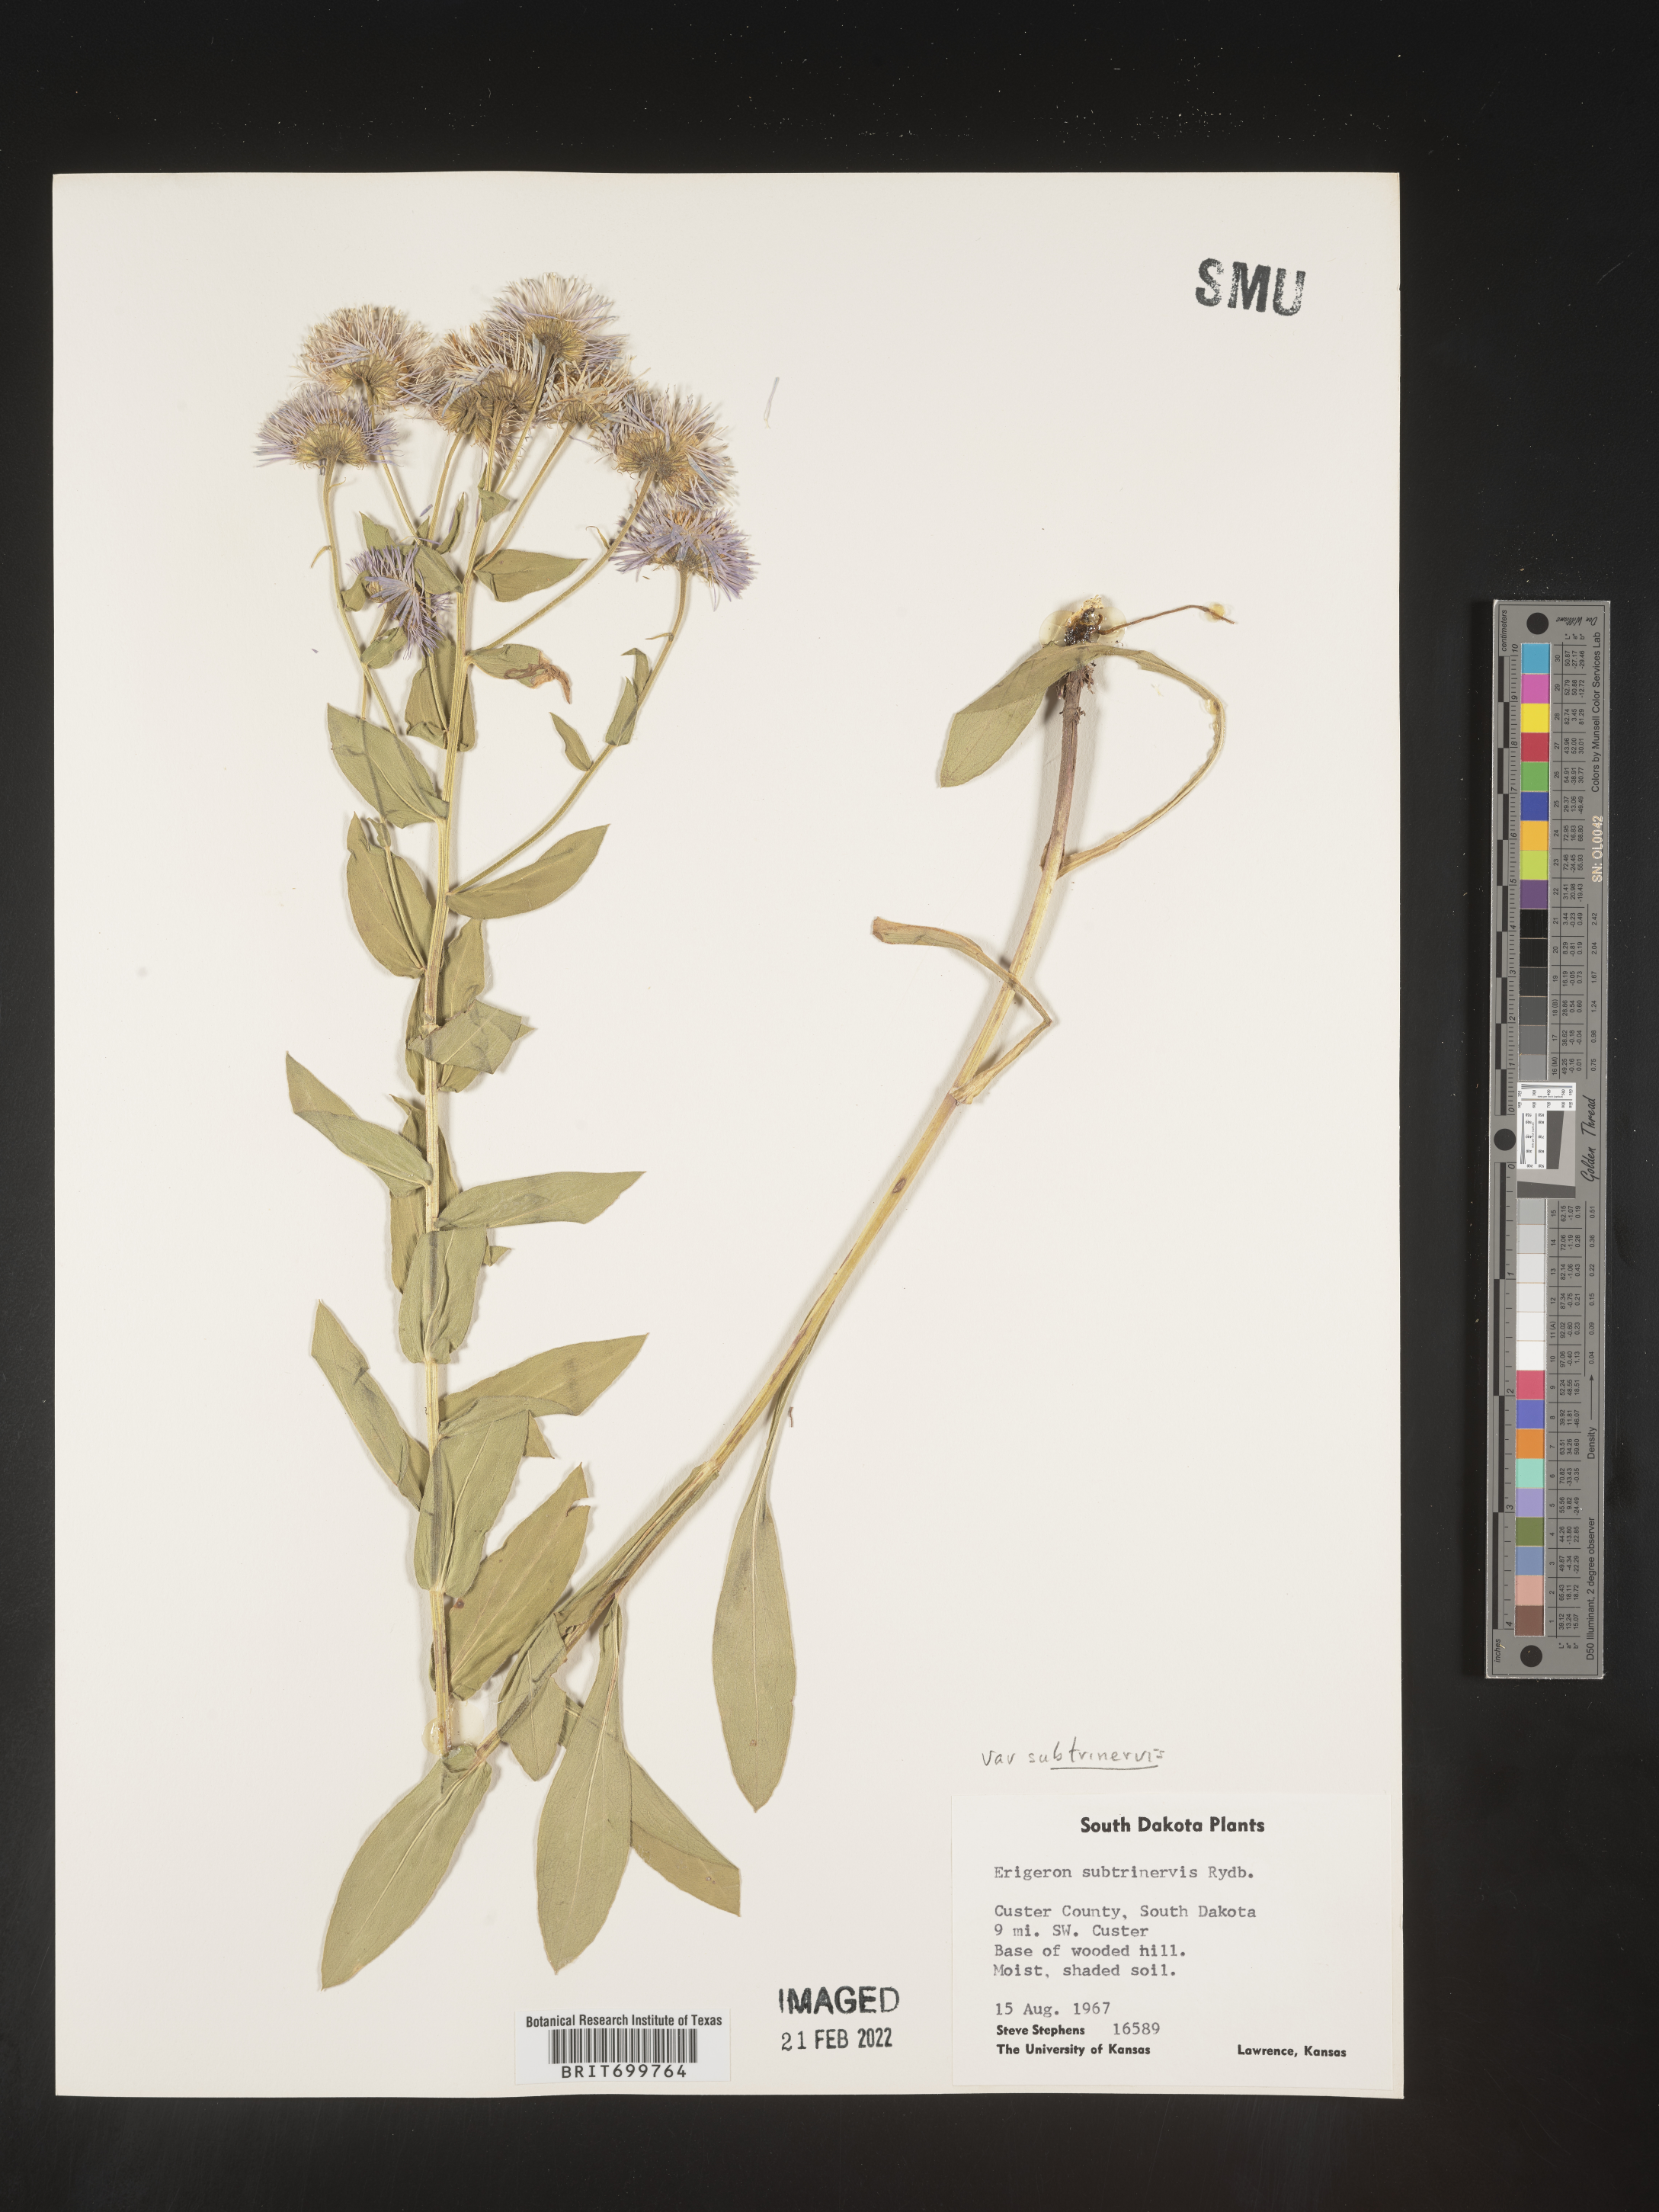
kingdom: Plantae
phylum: Tracheophyta
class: Magnoliopsida
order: Asterales
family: Asteraceae
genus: Erigeron
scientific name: Erigeron subtrinervis
